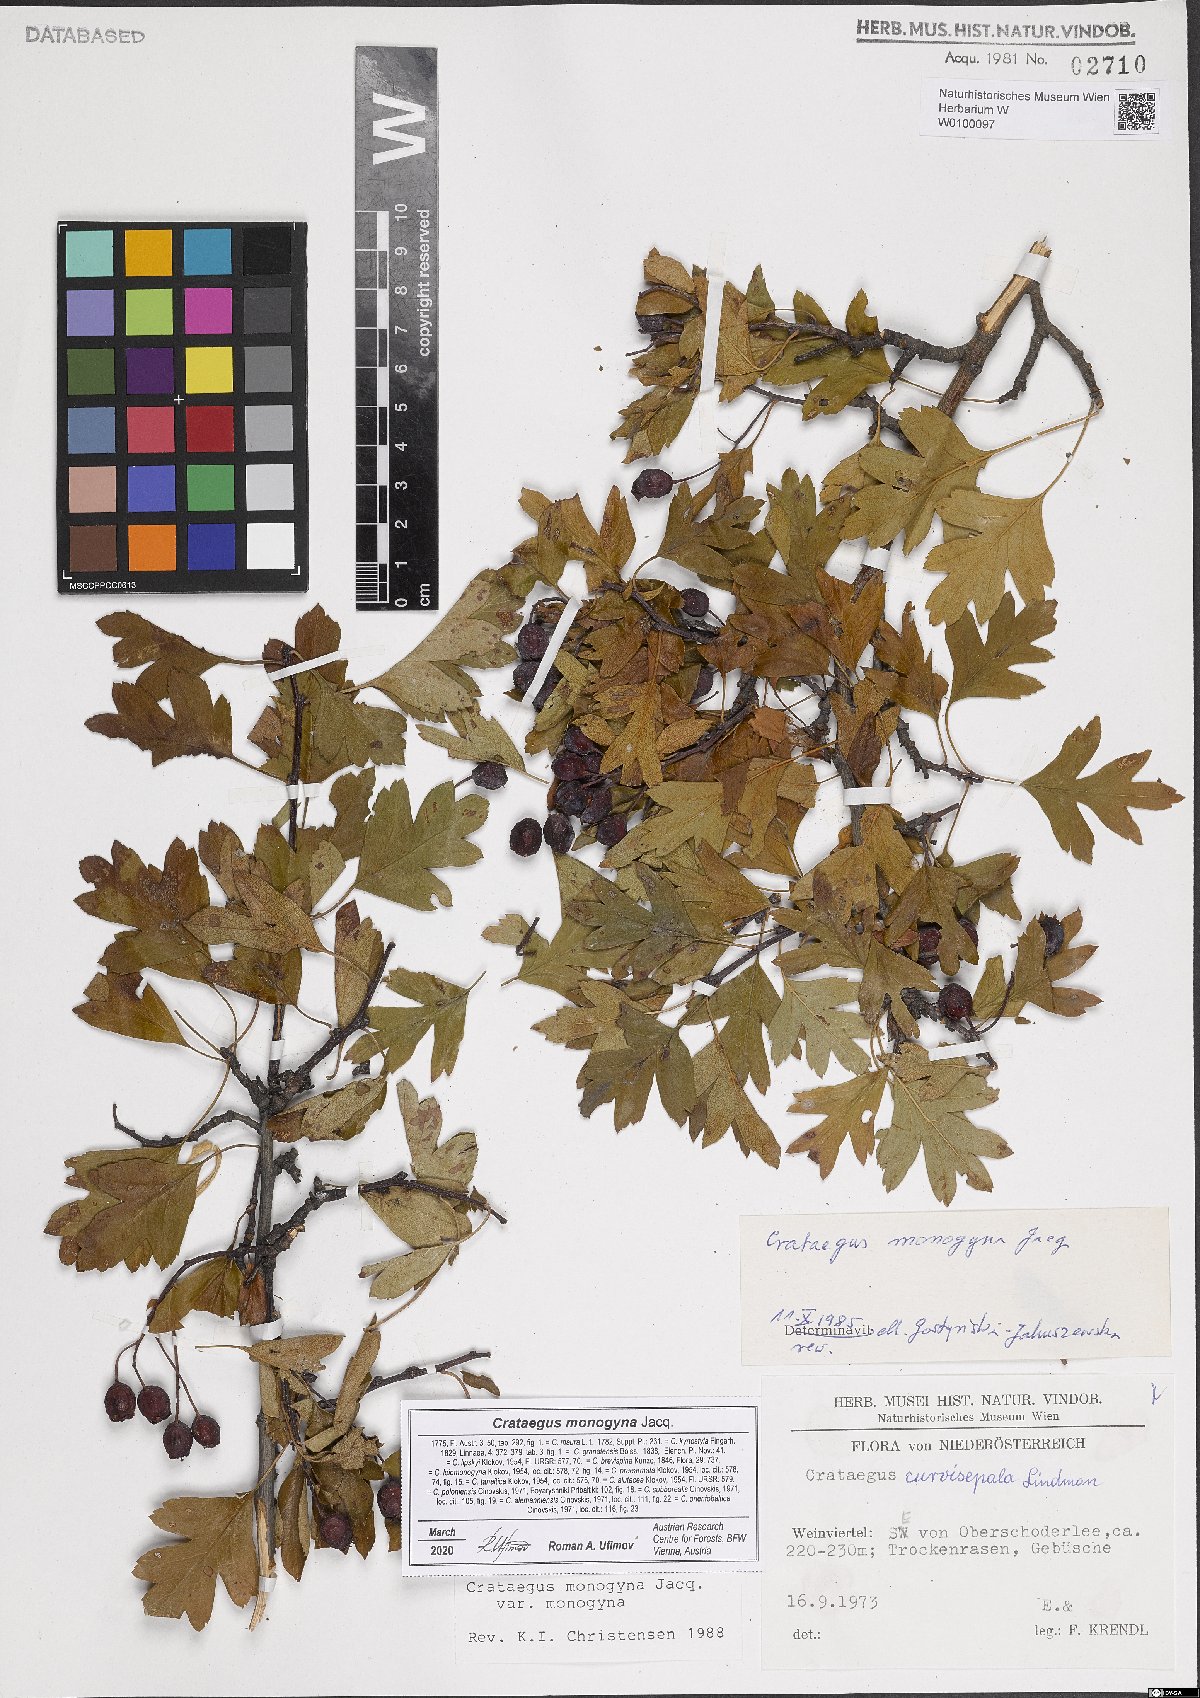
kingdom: Plantae
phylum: Tracheophyta
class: Magnoliopsida
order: Rosales
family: Rosaceae
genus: Crataegus
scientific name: Crataegus monogyna
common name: Hawthorn
